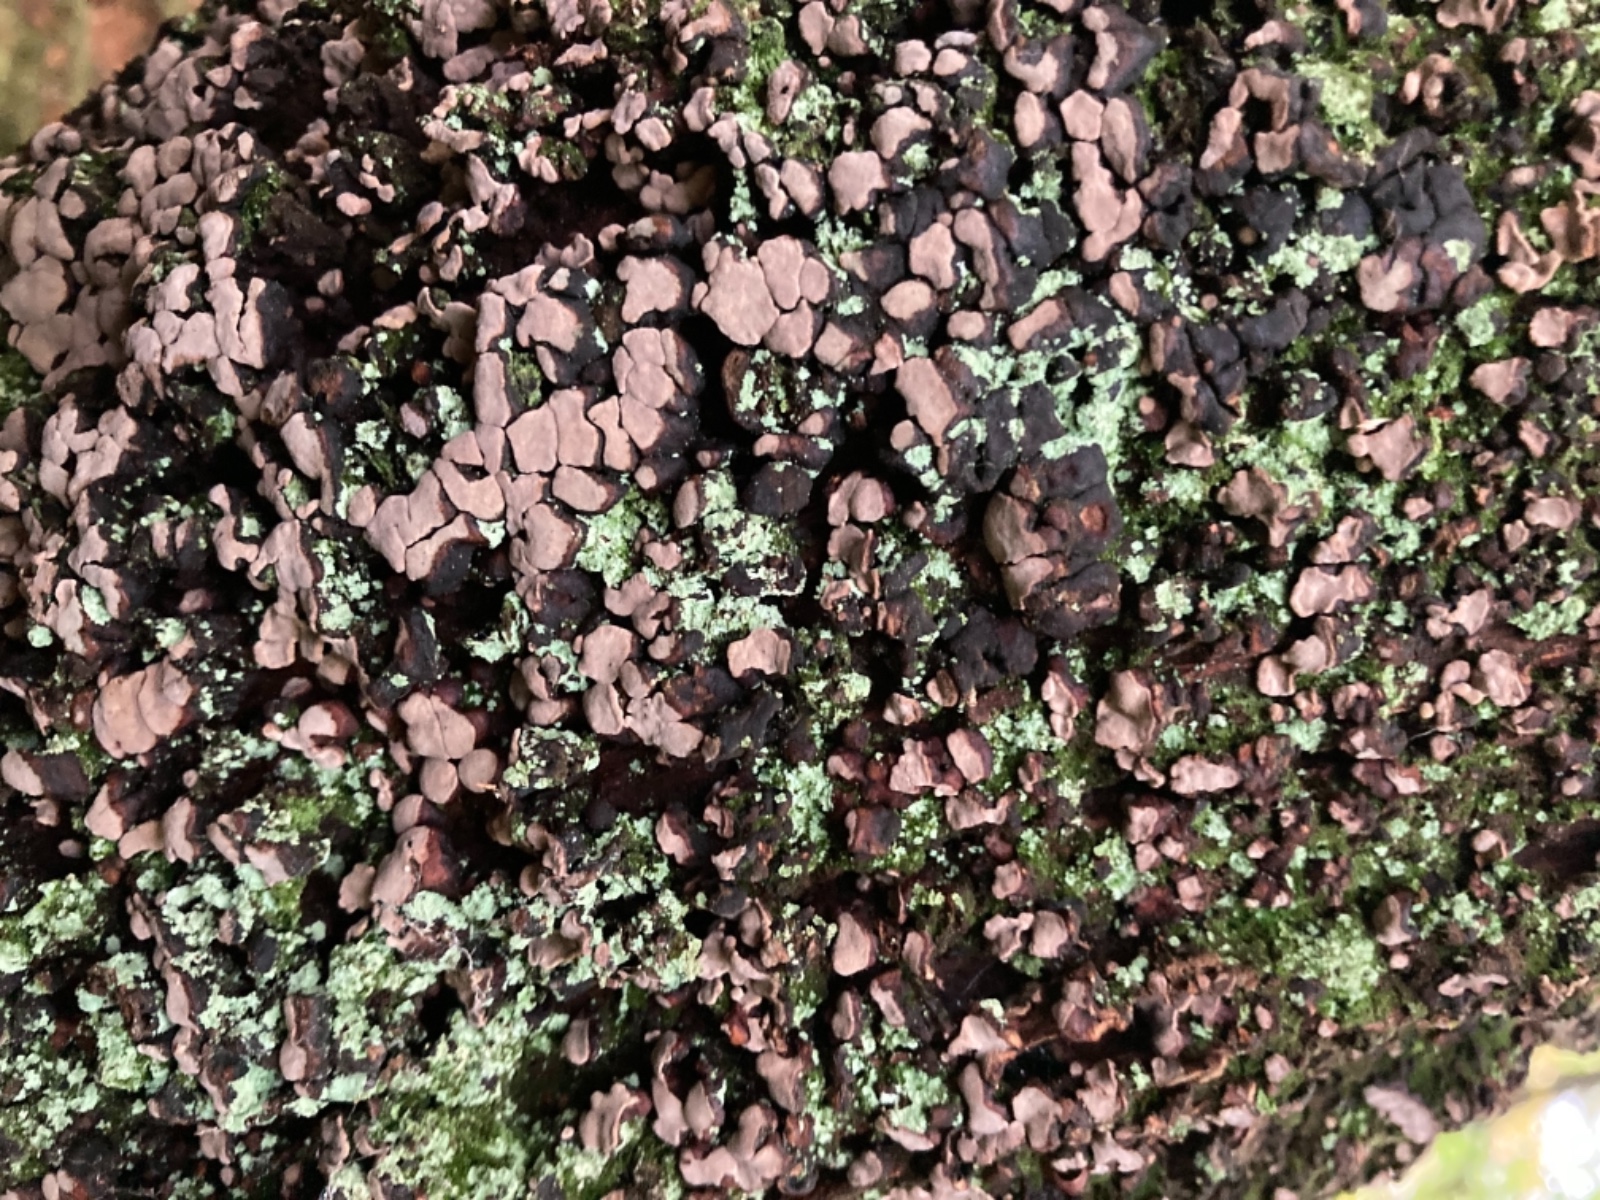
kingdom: Fungi
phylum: Basidiomycota
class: Agaricomycetes
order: Russulales
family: Stereaceae
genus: Xylobolus
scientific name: Xylobolus frustulatus
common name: mønster-lædersvamp
